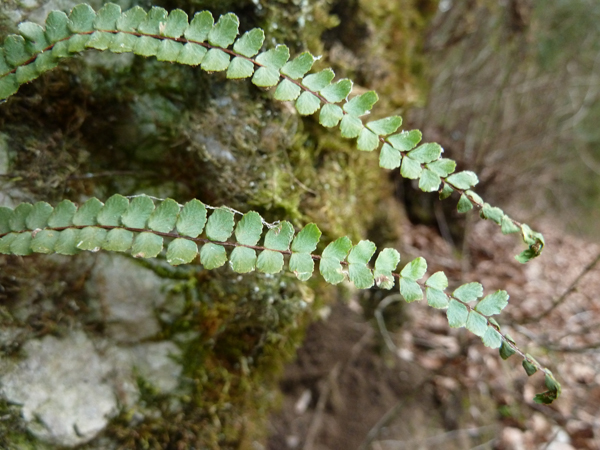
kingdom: Plantae
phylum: Tracheophyta
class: Polypodiopsida
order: Polypodiales
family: Aspleniaceae
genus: Asplenium
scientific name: Asplenium trichomanes
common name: Maidenhair spleenwort
